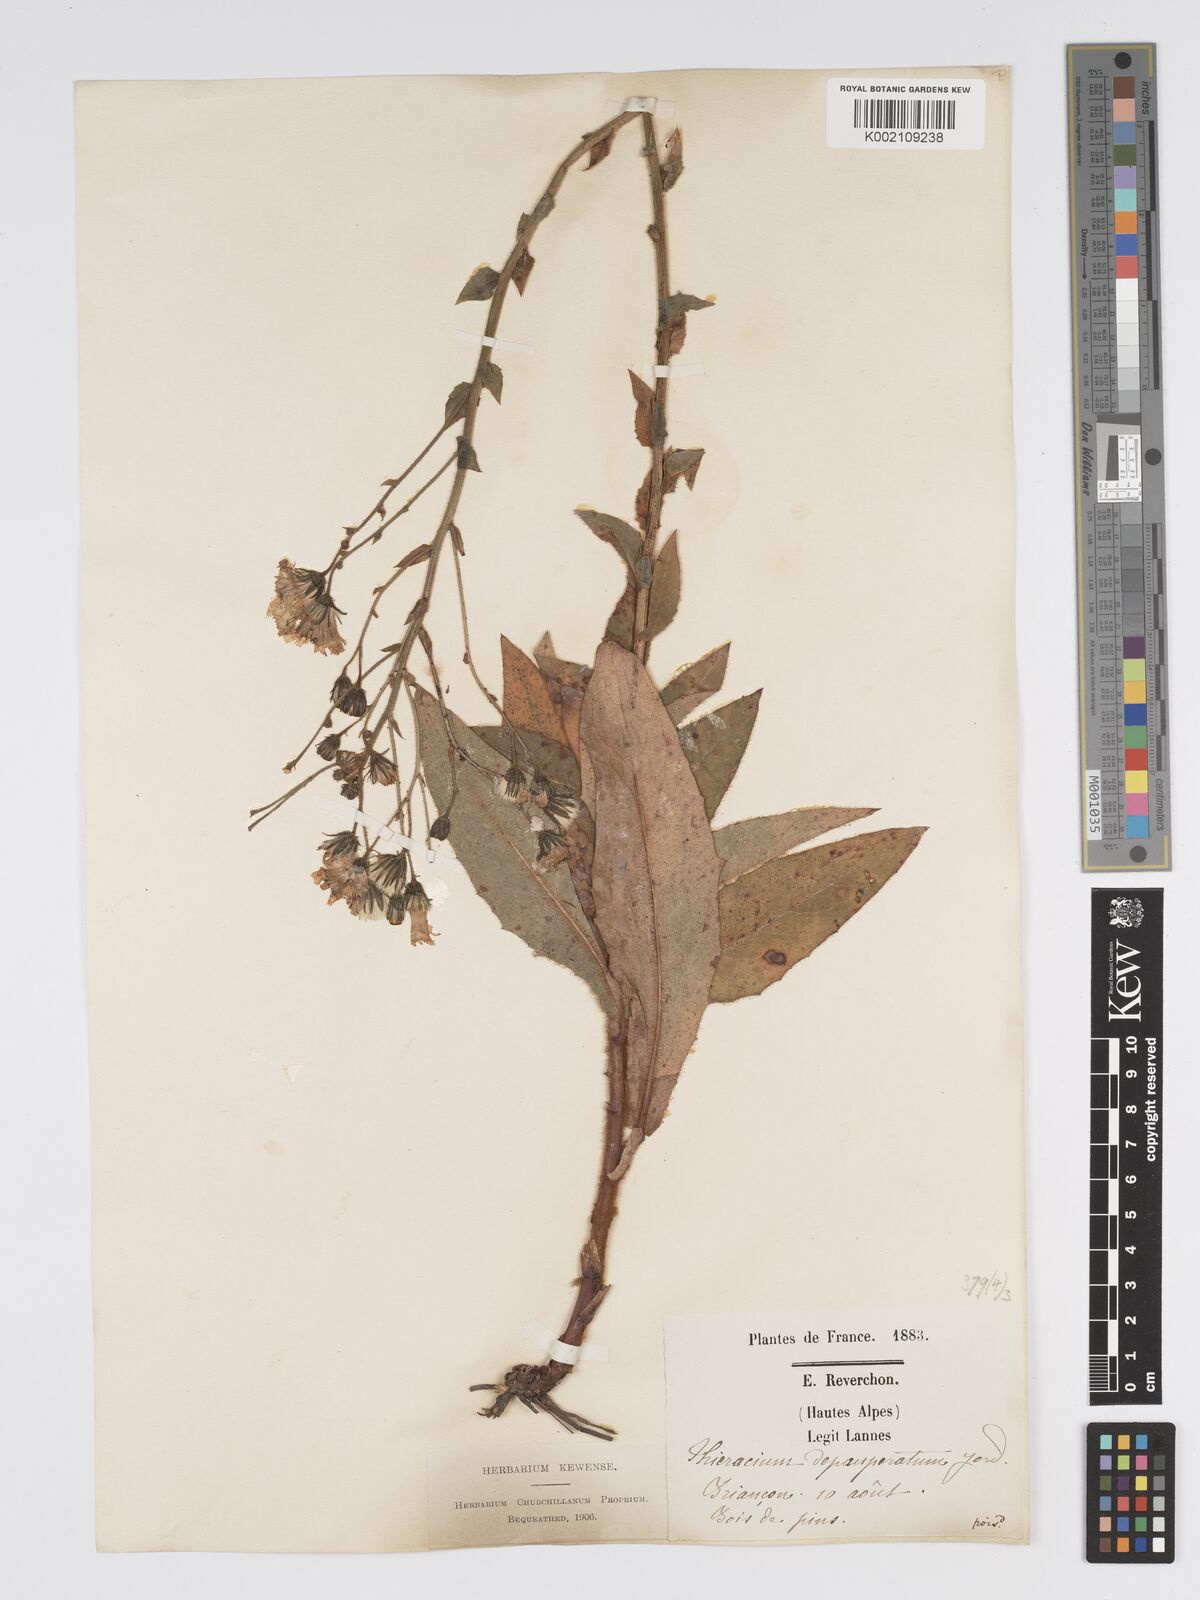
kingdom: Plantae
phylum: Tracheophyta
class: Magnoliopsida
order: Asterales
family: Asteraceae
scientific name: Asteraceae
